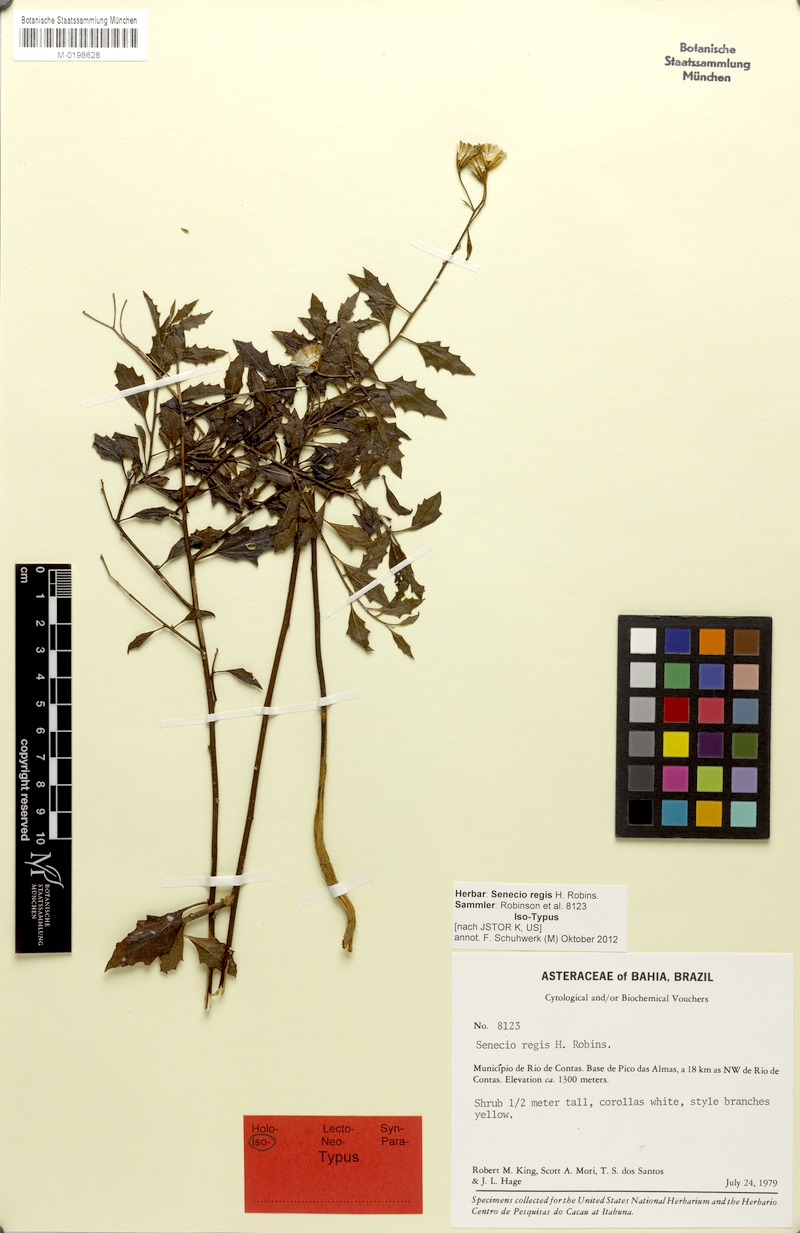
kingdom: Plantae
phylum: Tracheophyta
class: Magnoliopsida
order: Asterales
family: Asteraceae
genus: Senecio
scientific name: Senecio regis
